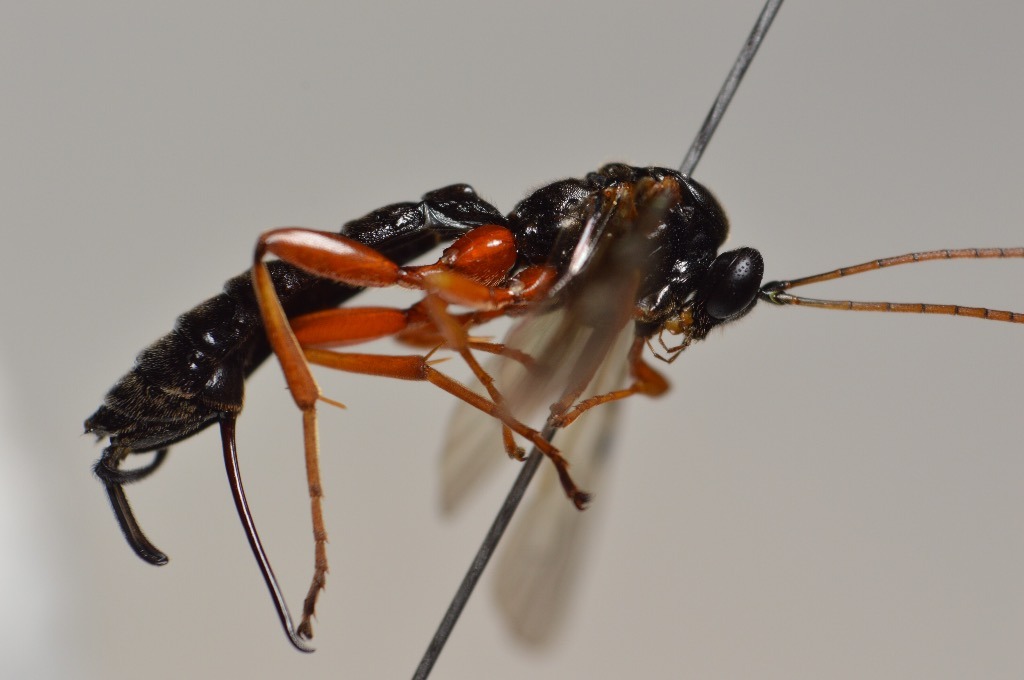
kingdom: Animalia
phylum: Arthropoda
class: Insecta
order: Hymenoptera
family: Ichneumonidae
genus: Apechthis
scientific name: Apechthis compunctor
